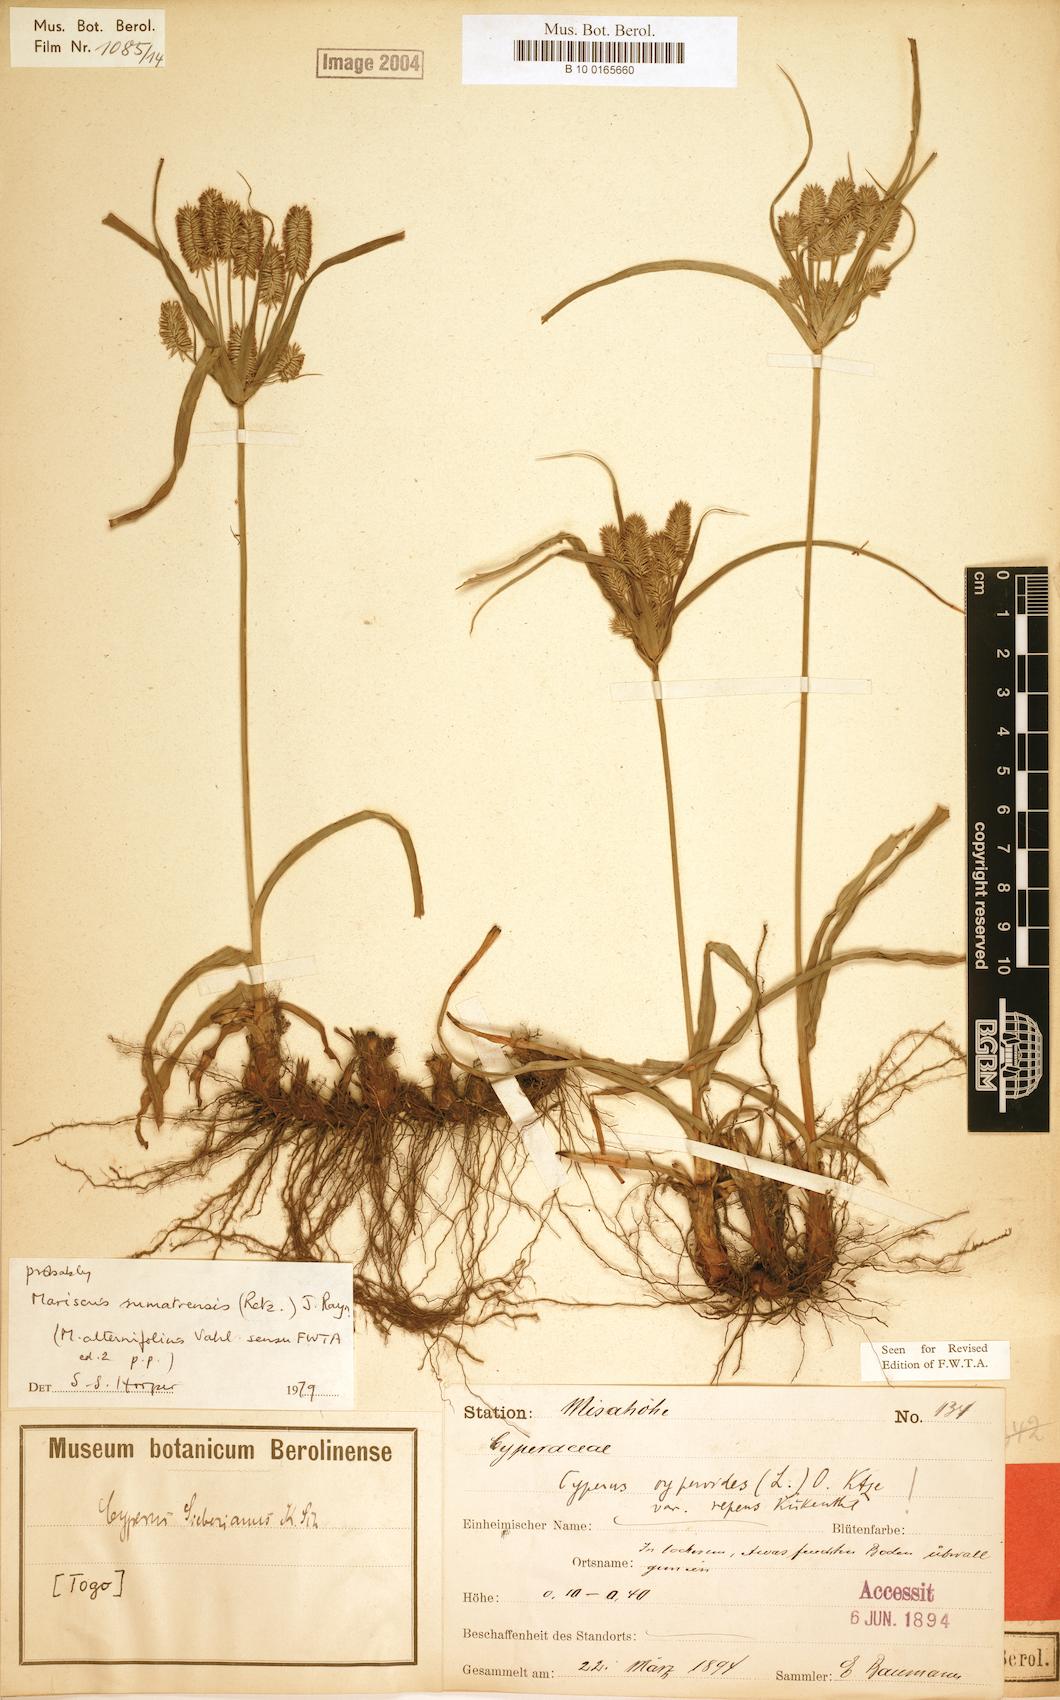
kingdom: Plantae
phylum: Tracheophyta
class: Liliopsida
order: Poales
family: Cyperaceae
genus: Cyperus
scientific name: Cyperus cyperoides
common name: Pacific island flat sedge
